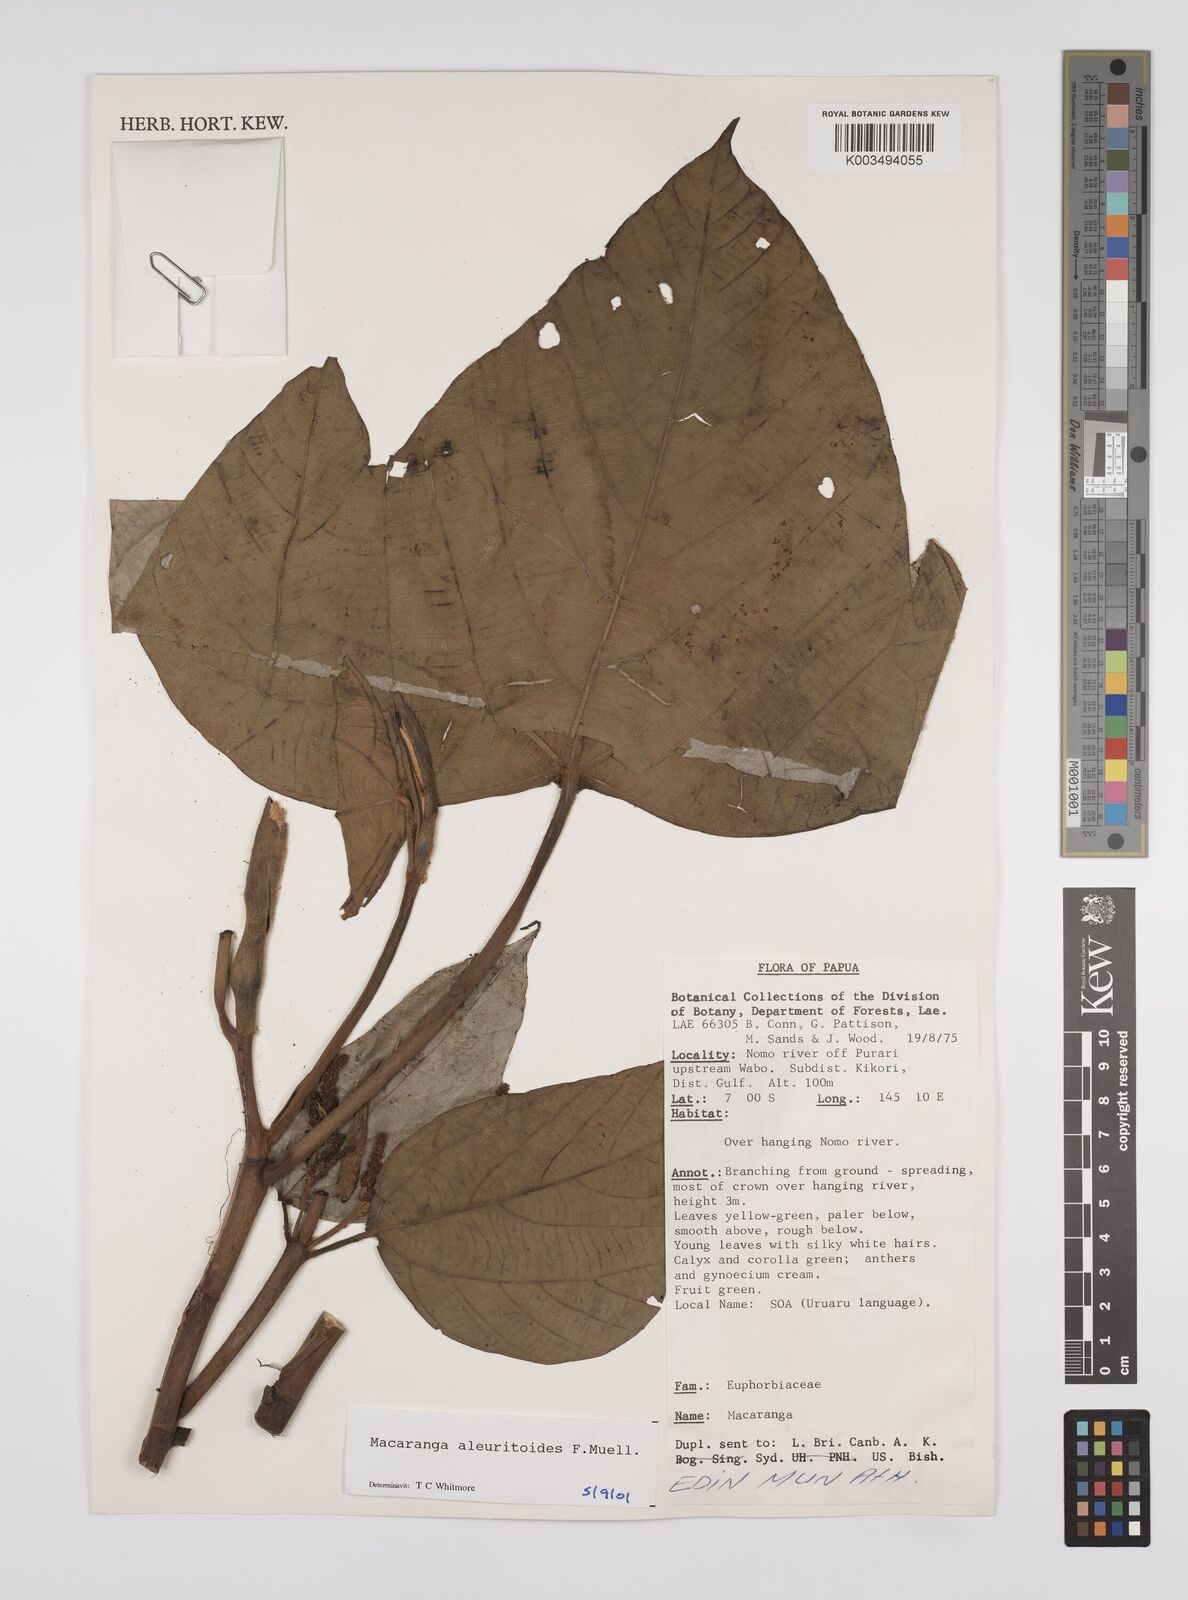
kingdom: Plantae
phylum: Tracheophyta
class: Magnoliopsida
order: Malpighiales
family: Euphorbiaceae
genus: Macaranga
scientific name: Macaranga aleuritoides
